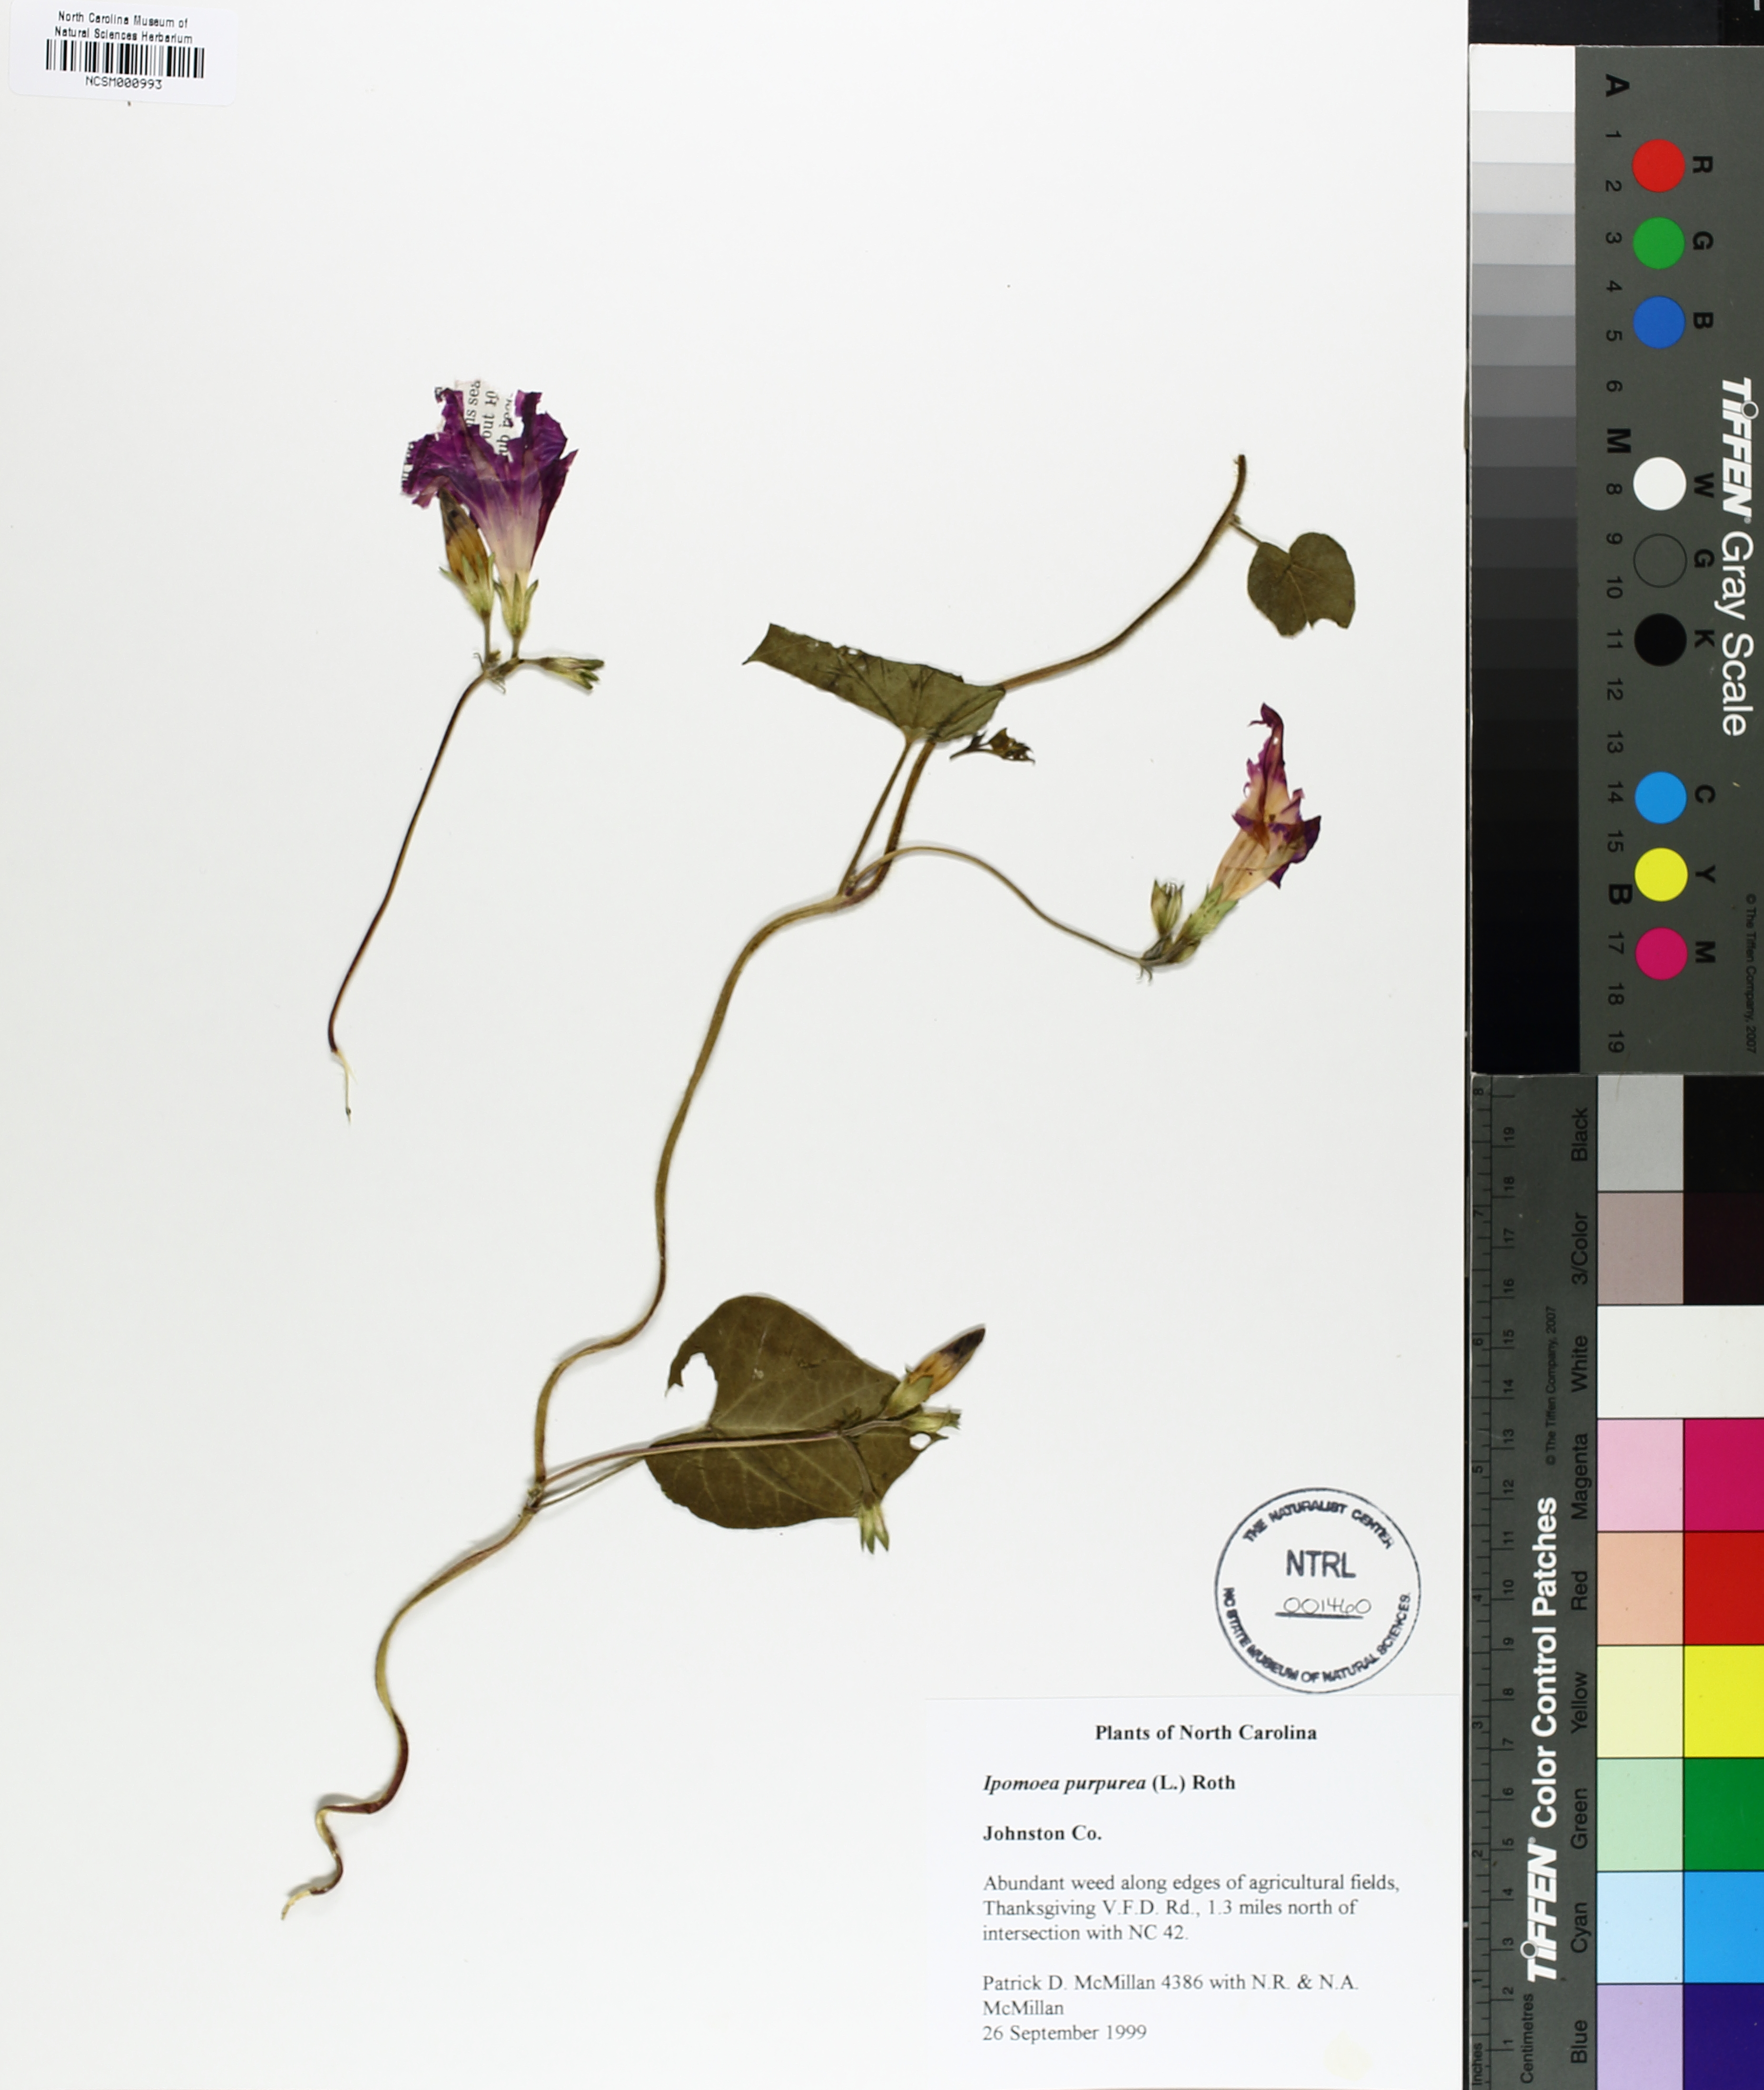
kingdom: Plantae
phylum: Tracheophyta
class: Magnoliopsida
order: Solanales
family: Convolvulaceae
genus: Ipomoea
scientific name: Ipomoea purpurea
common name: Common morning-glory
